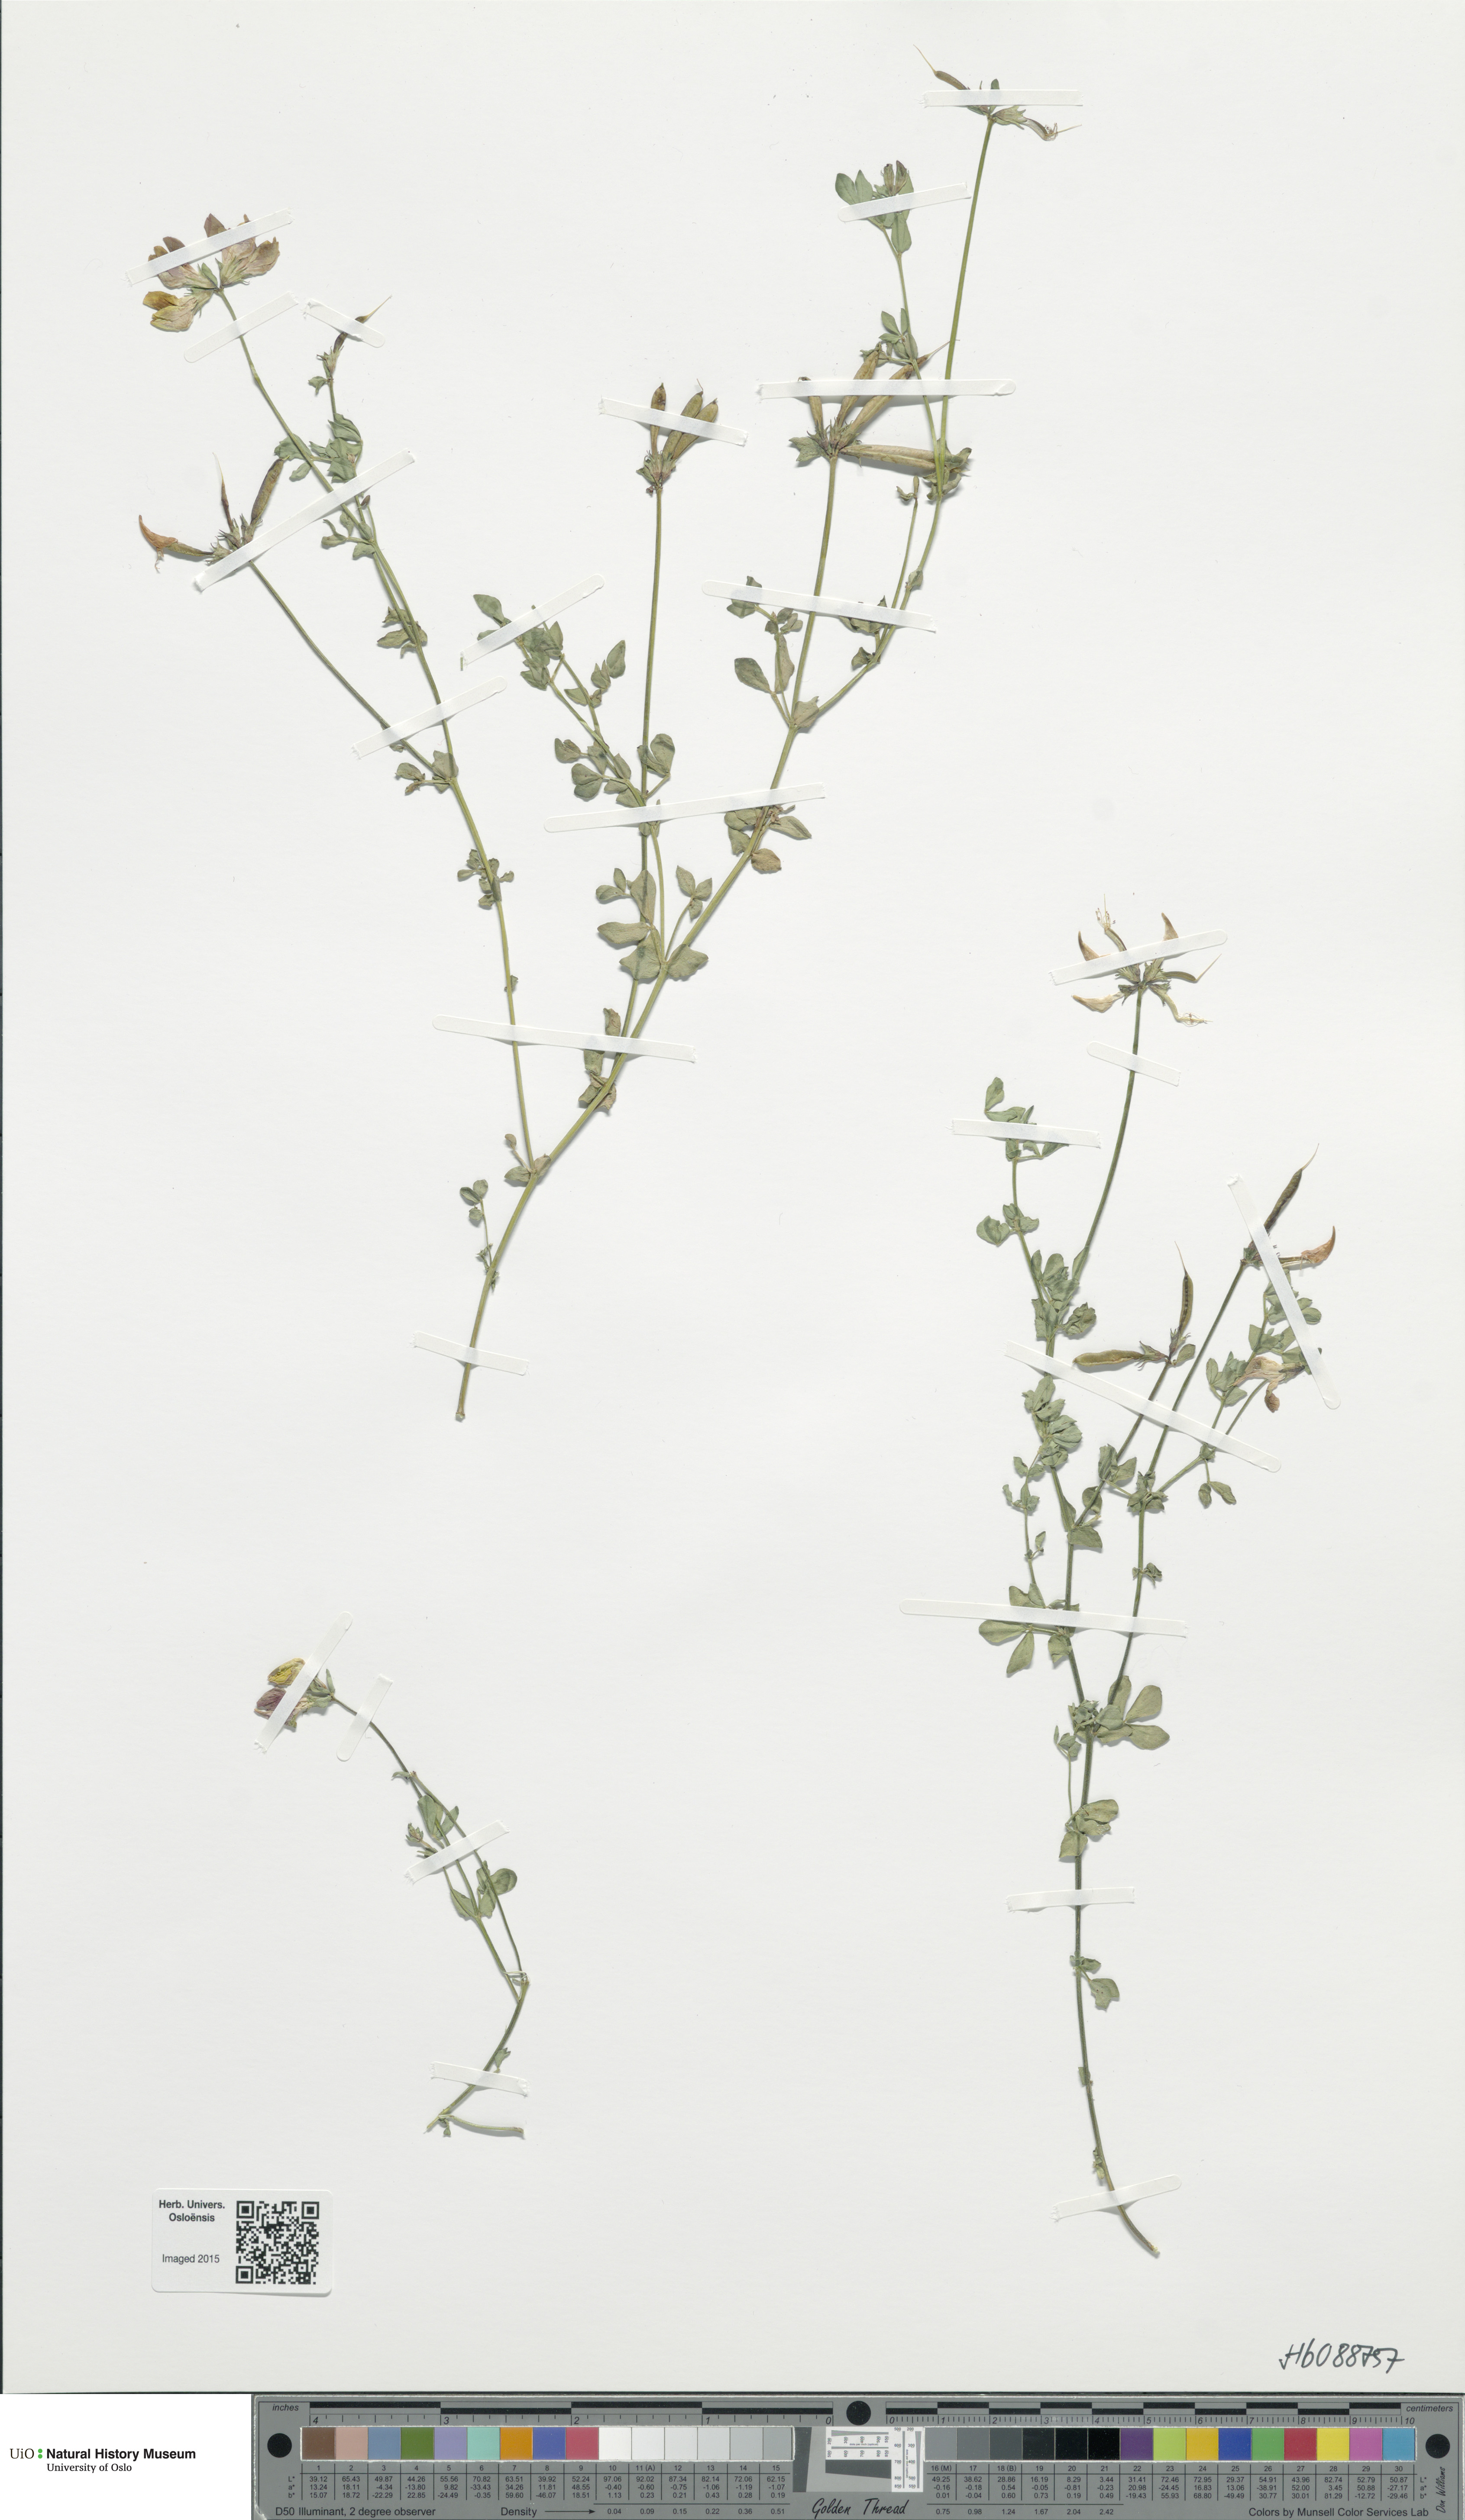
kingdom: Plantae
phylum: Tracheophyta
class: Magnoliopsida
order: Fabales
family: Fabaceae
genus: Lotus
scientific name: Lotus corniculatus
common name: Common bird's-foot-trefoil
